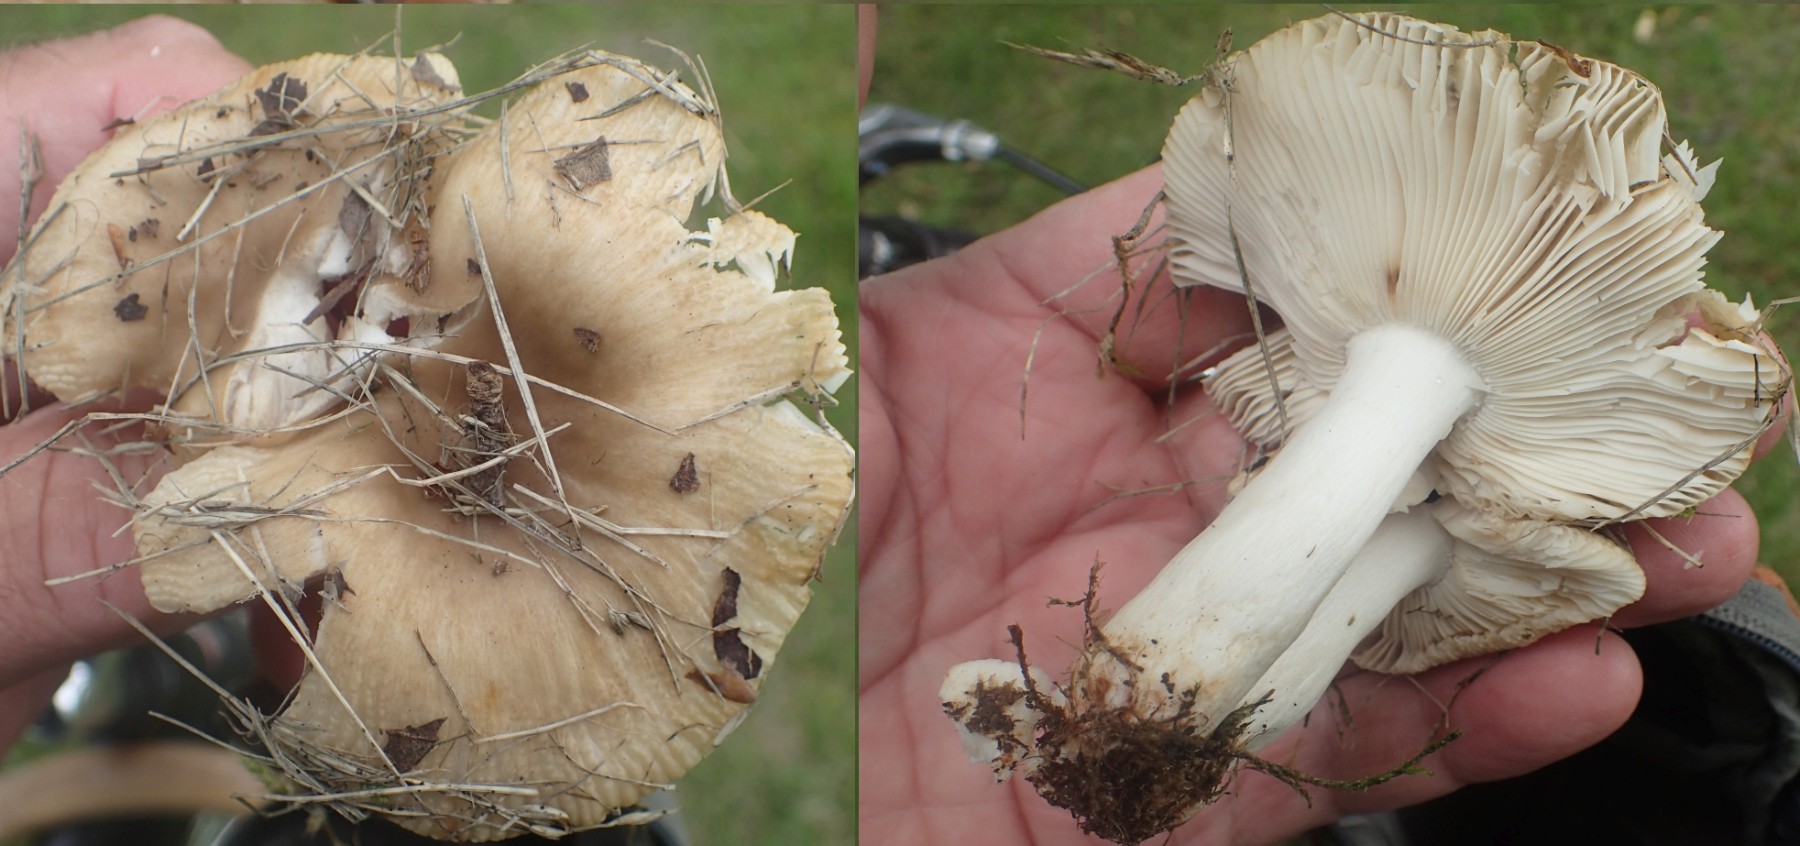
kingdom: Fungi
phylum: Basidiomycota
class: Agaricomycetes
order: Russulales
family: Russulaceae
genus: Russula
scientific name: Russula recondita
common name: mild kam-skørhat
